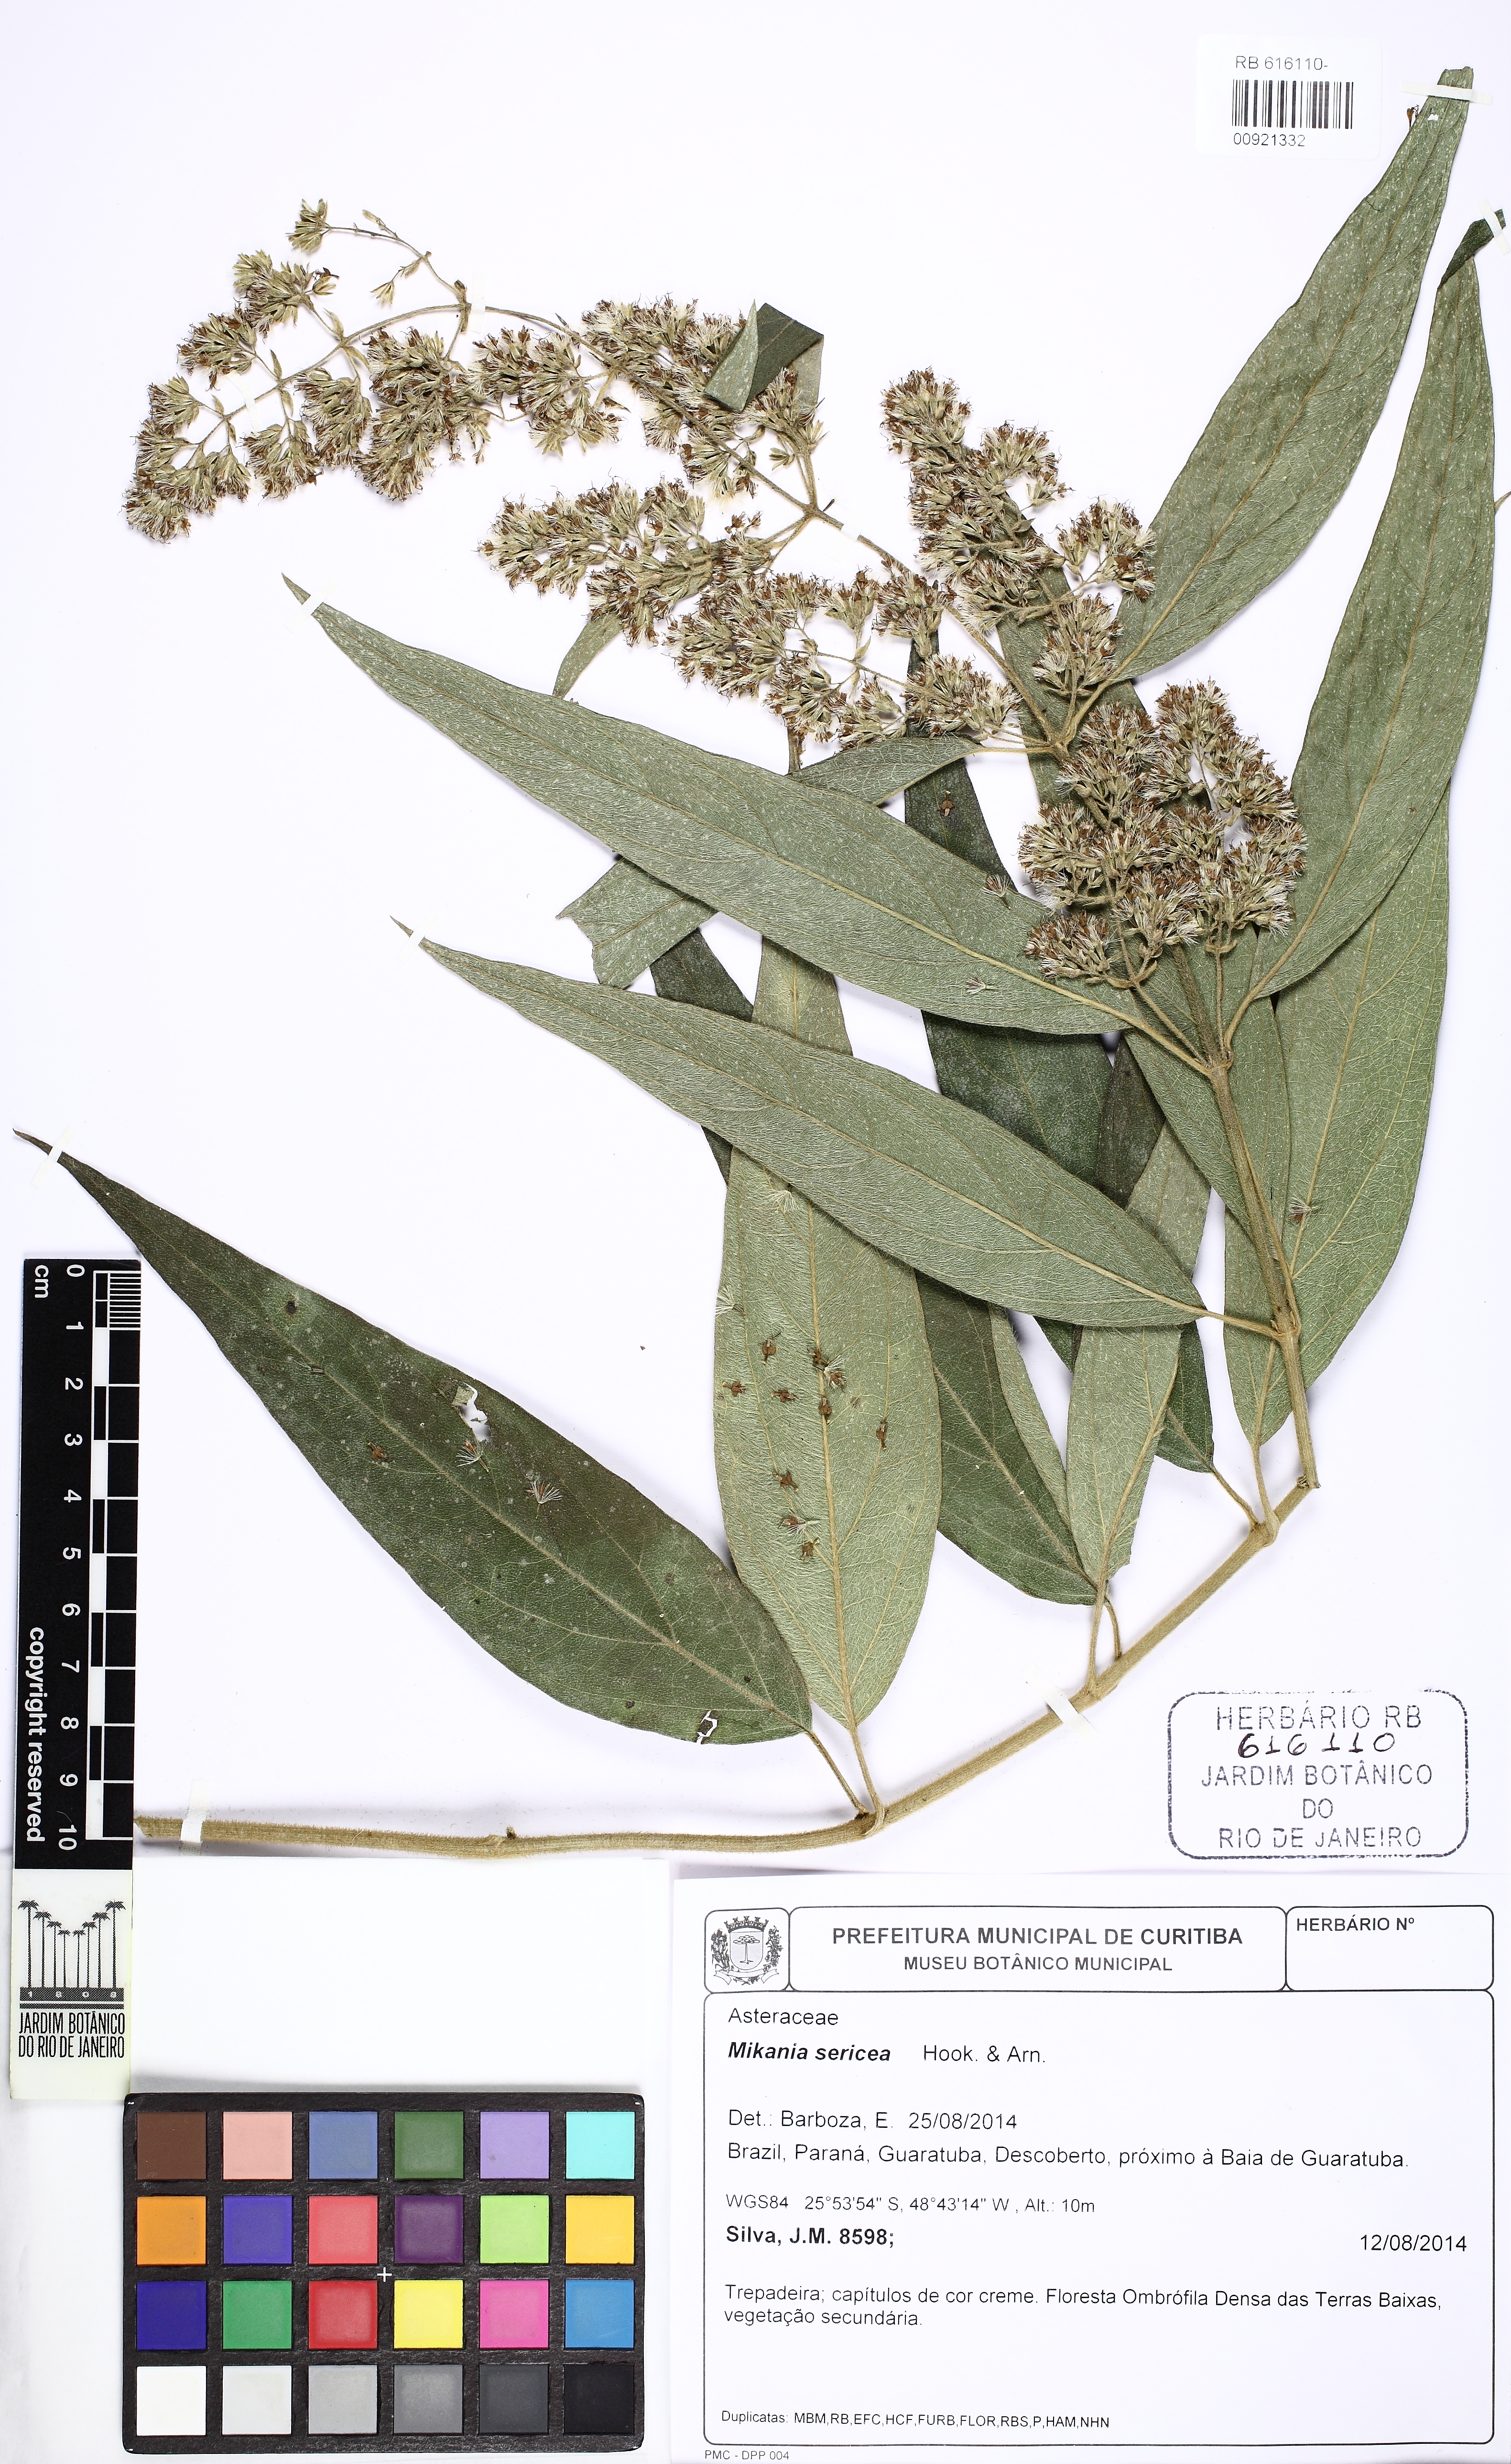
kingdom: Plantae
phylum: Tracheophyta
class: Magnoliopsida
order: Asterales
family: Asteraceae
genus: Mikania
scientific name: Mikania sericea
